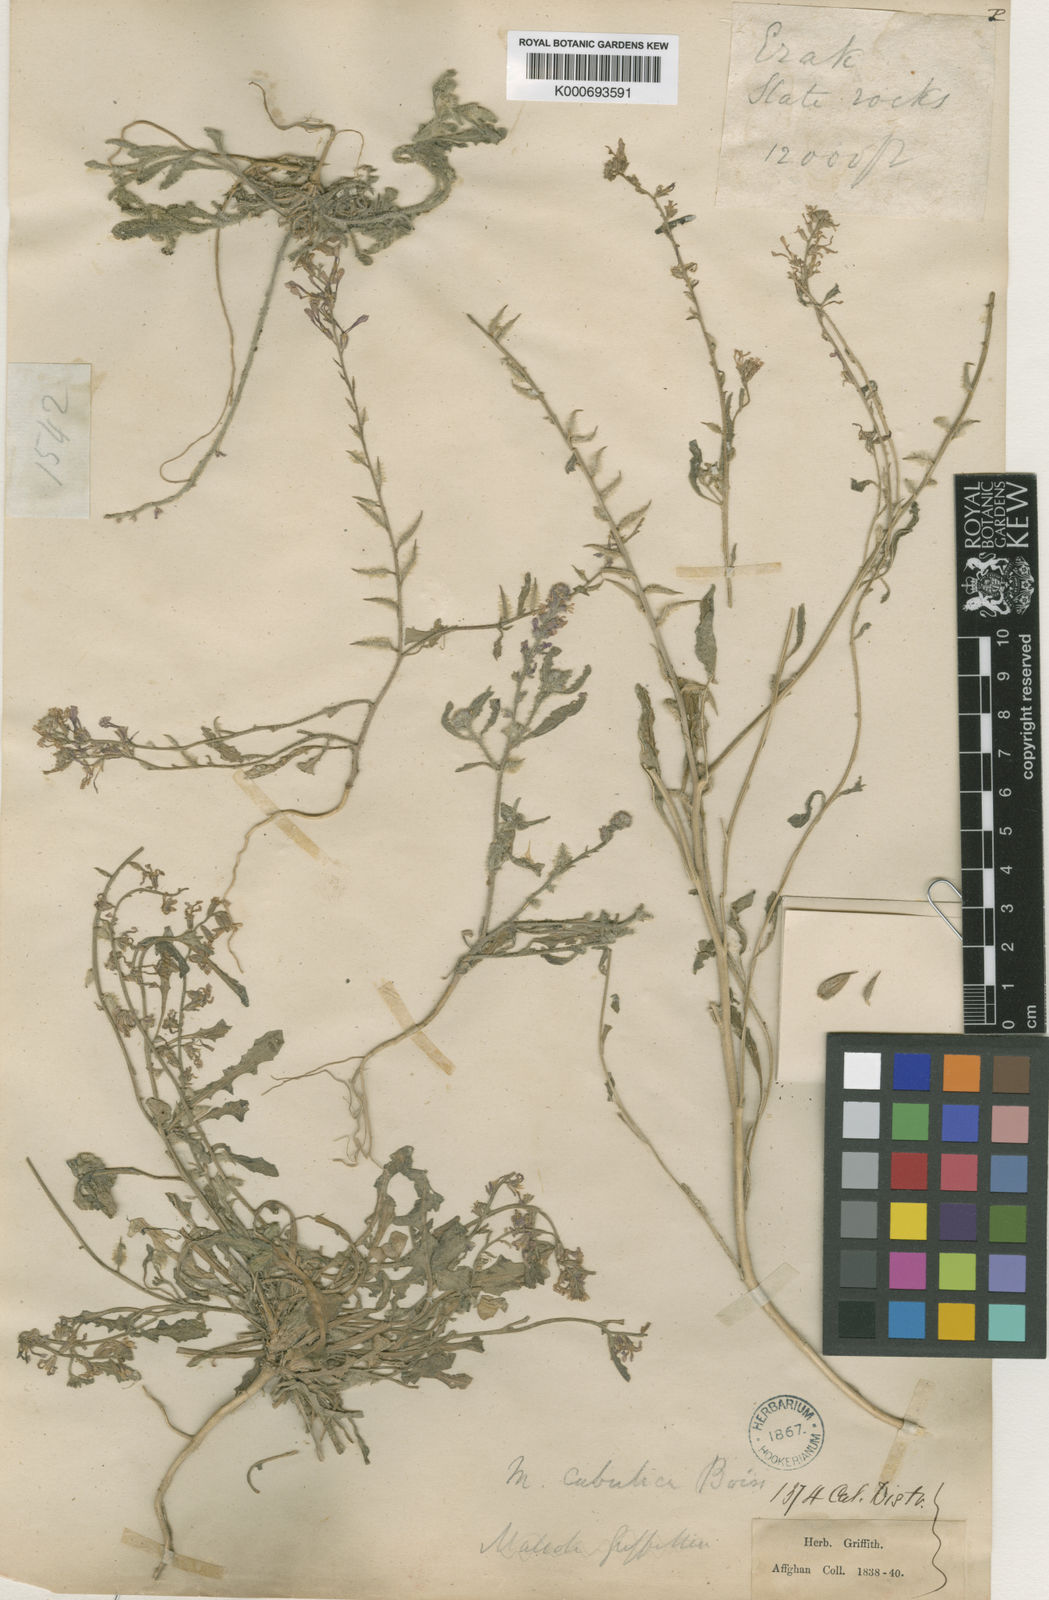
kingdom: Plantae
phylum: Tracheophyta
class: Magnoliopsida
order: Brassicales
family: Brassicaceae
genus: Strigosella
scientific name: Strigosella cabulica
